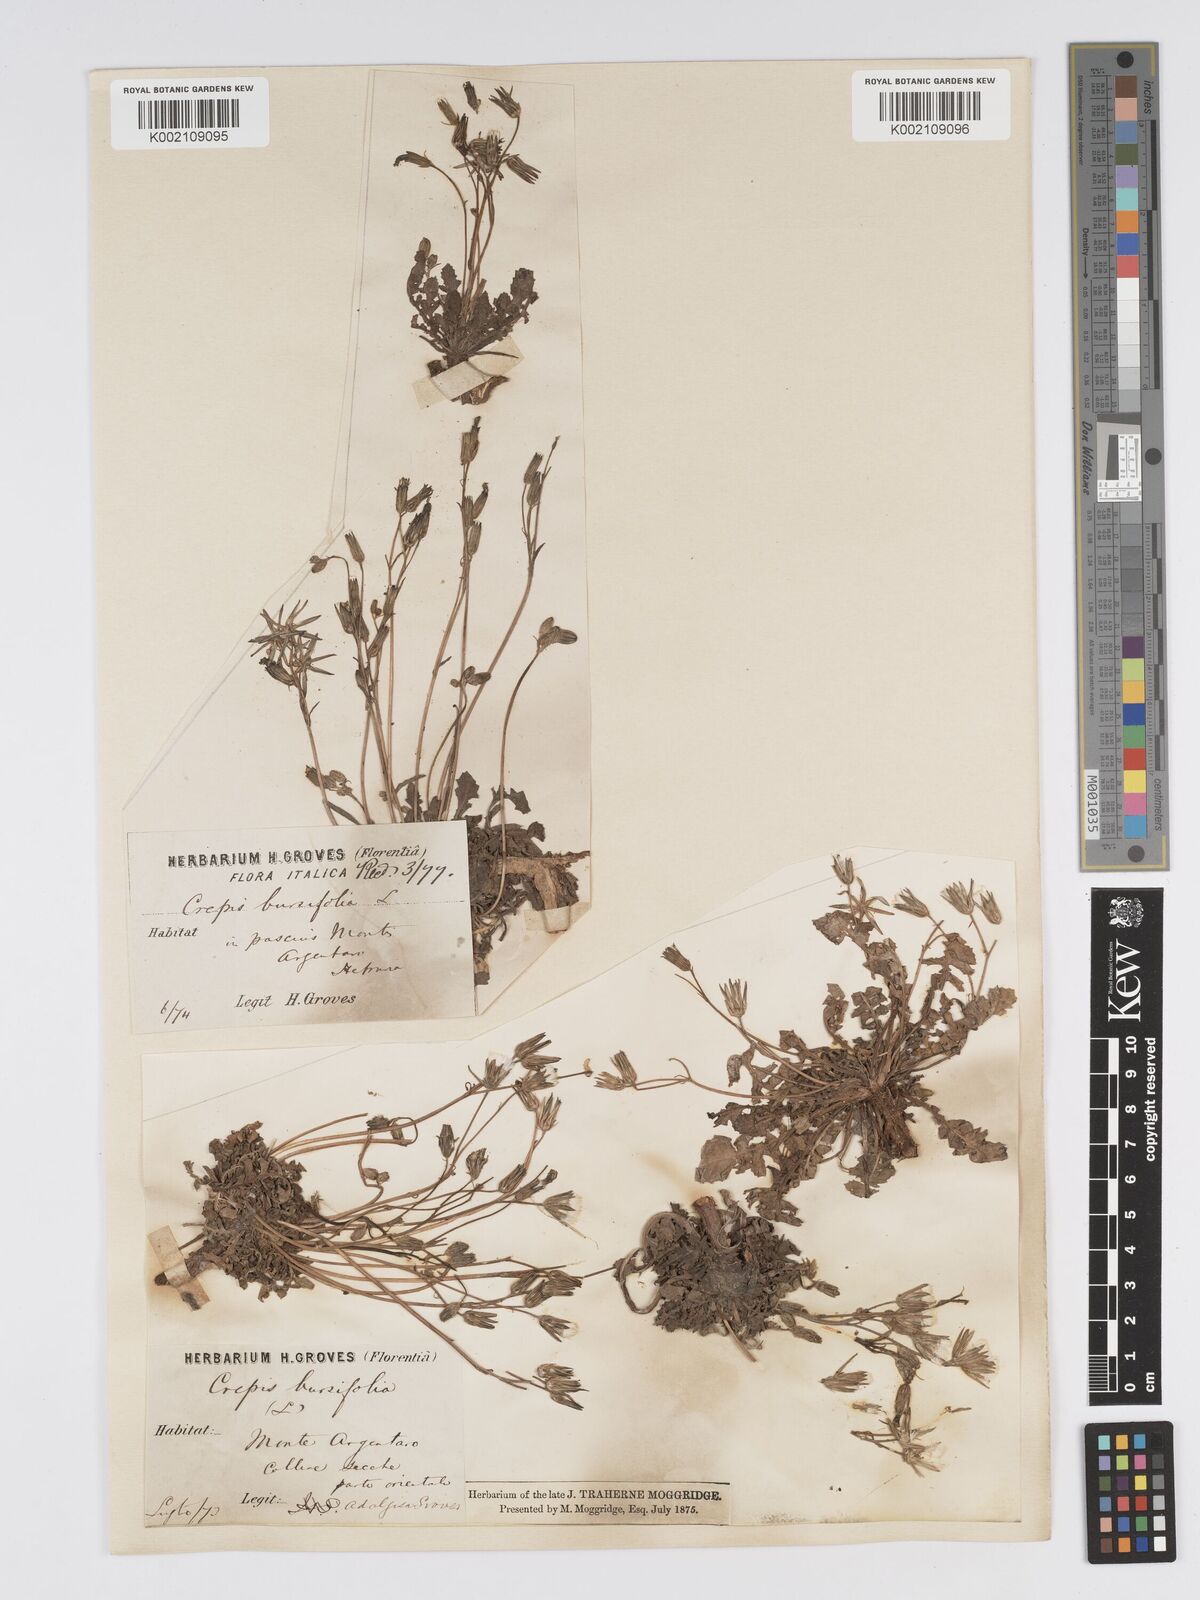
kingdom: Plantae
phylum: Tracheophyta
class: Magnoliopsida
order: Asterales
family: Asteraceae
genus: Crepis
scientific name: Crepis bursifolia
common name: Italian hawksbeard
